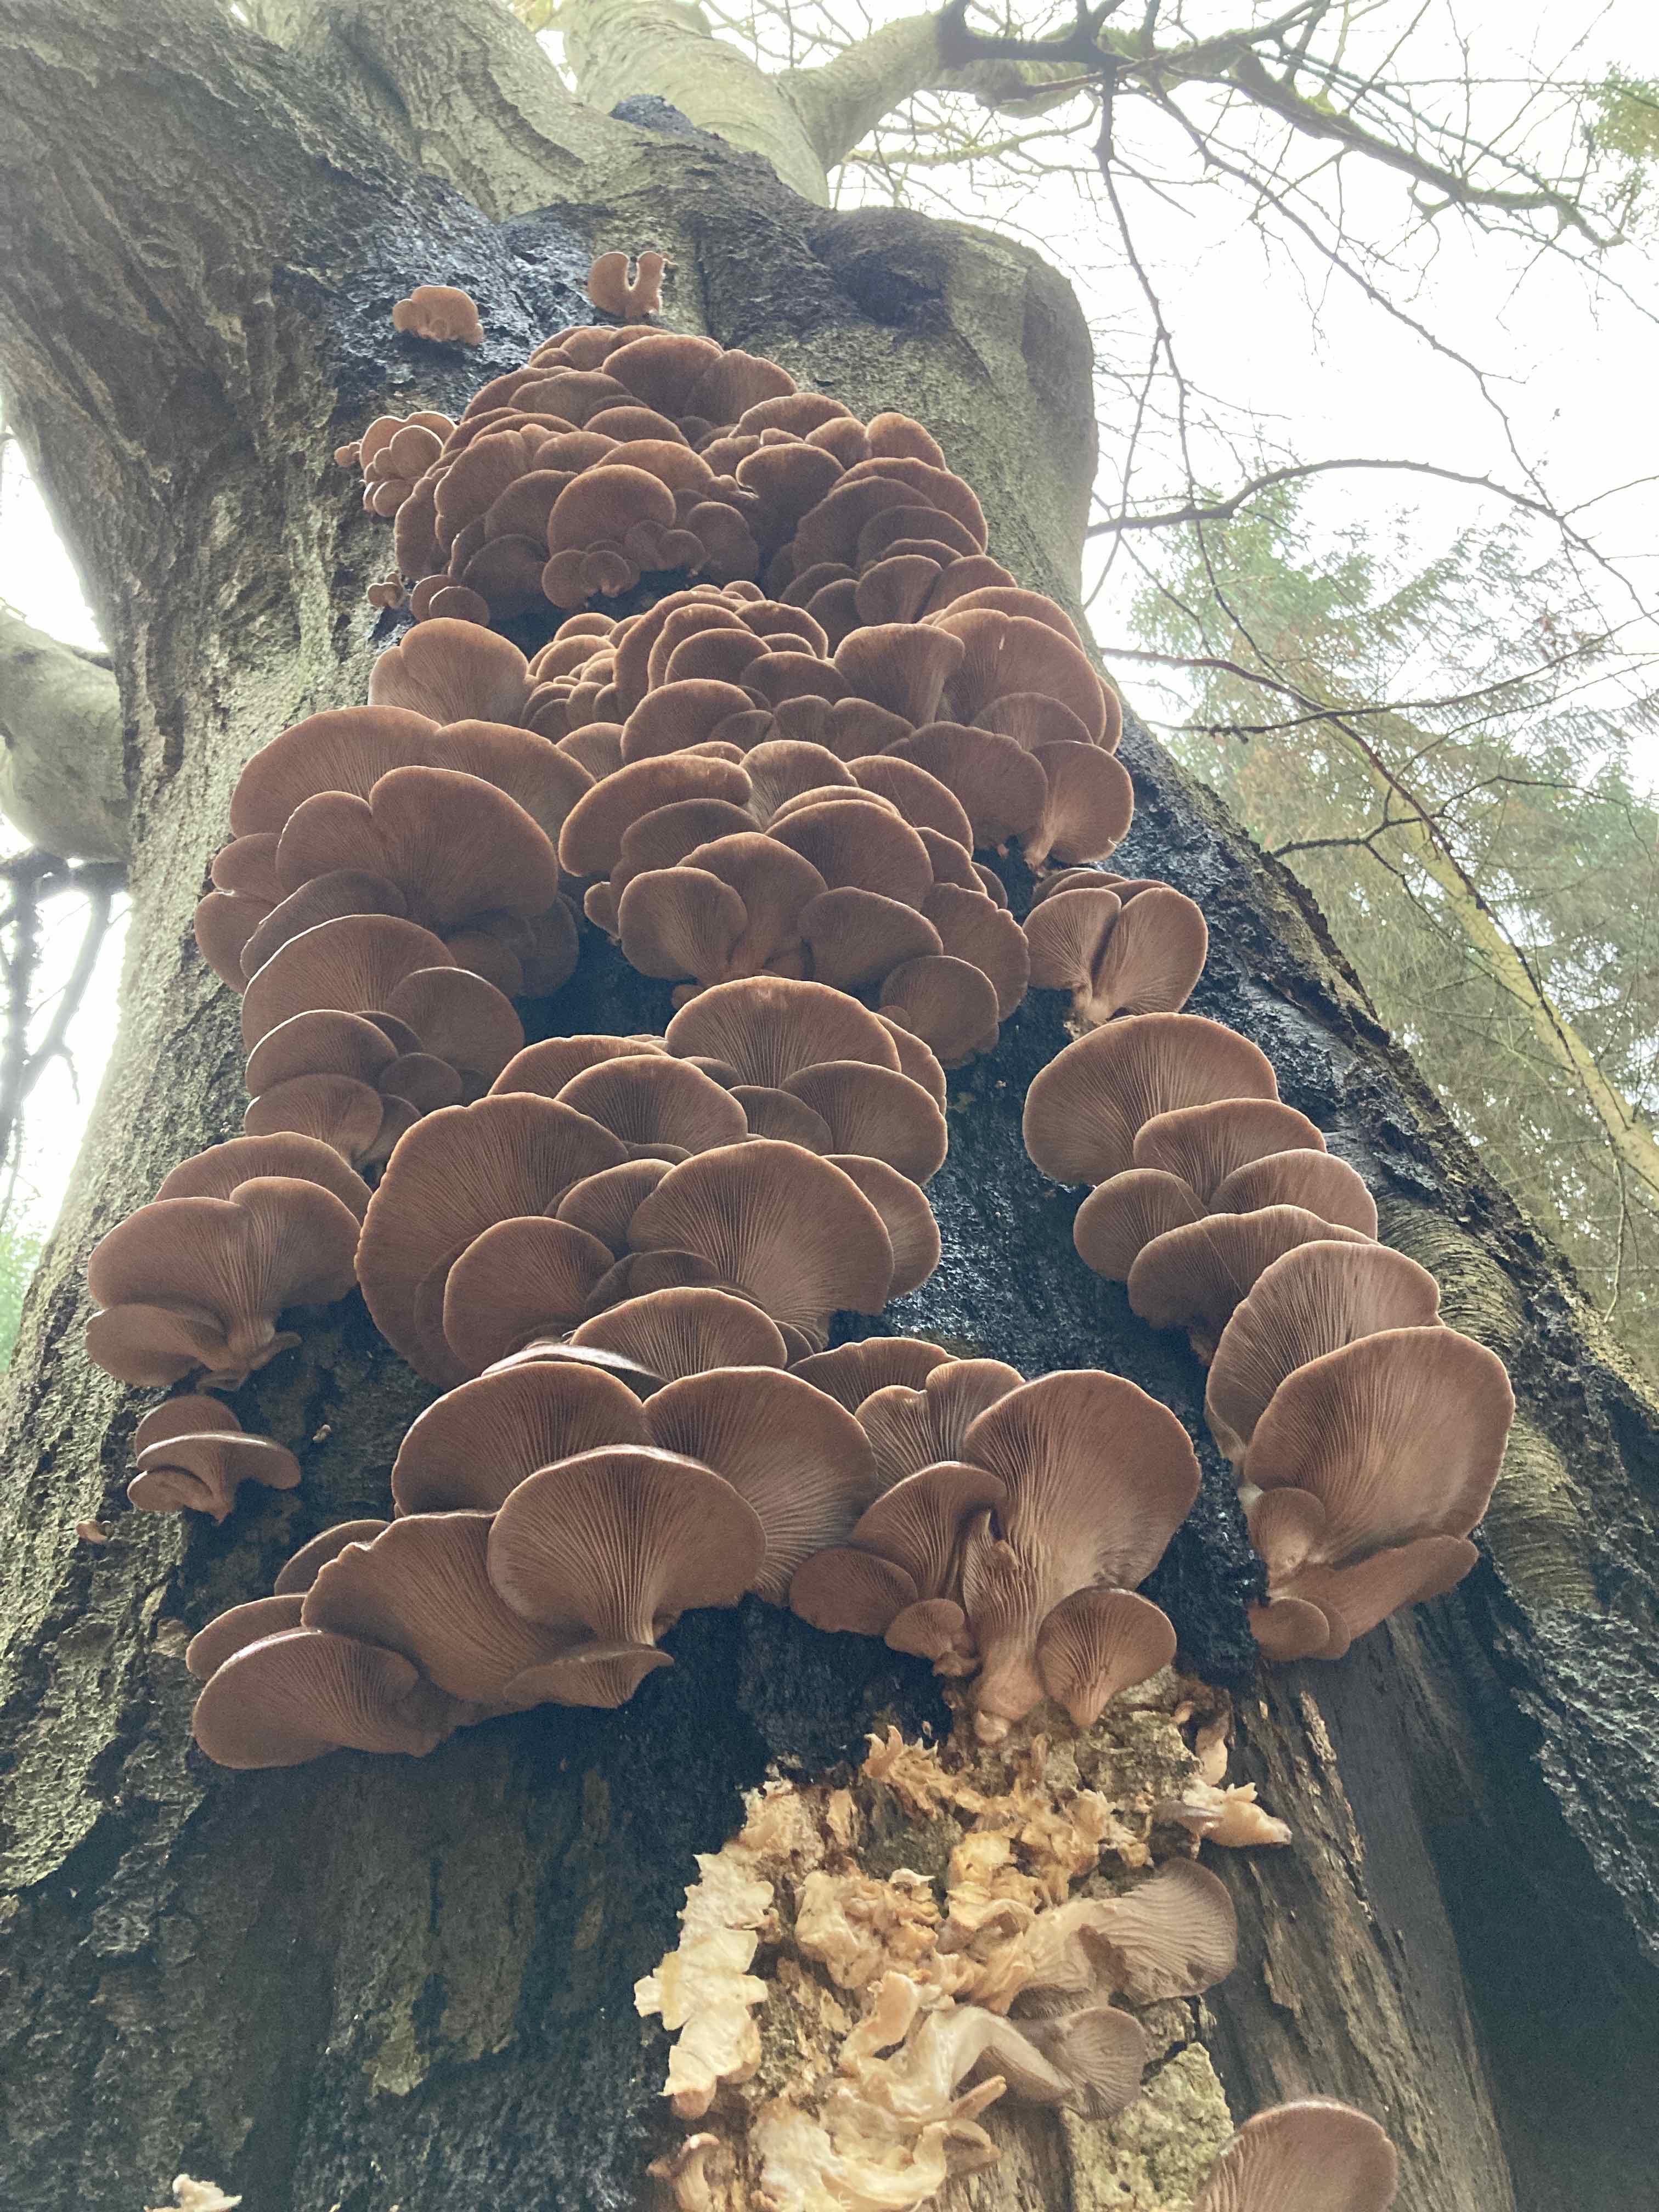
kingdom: Fungi
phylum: Basidiomycota
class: Agaricomycetes
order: Agaricales
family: Pleurotaceae
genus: Pleurotus
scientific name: Pleurotus ostreatus
